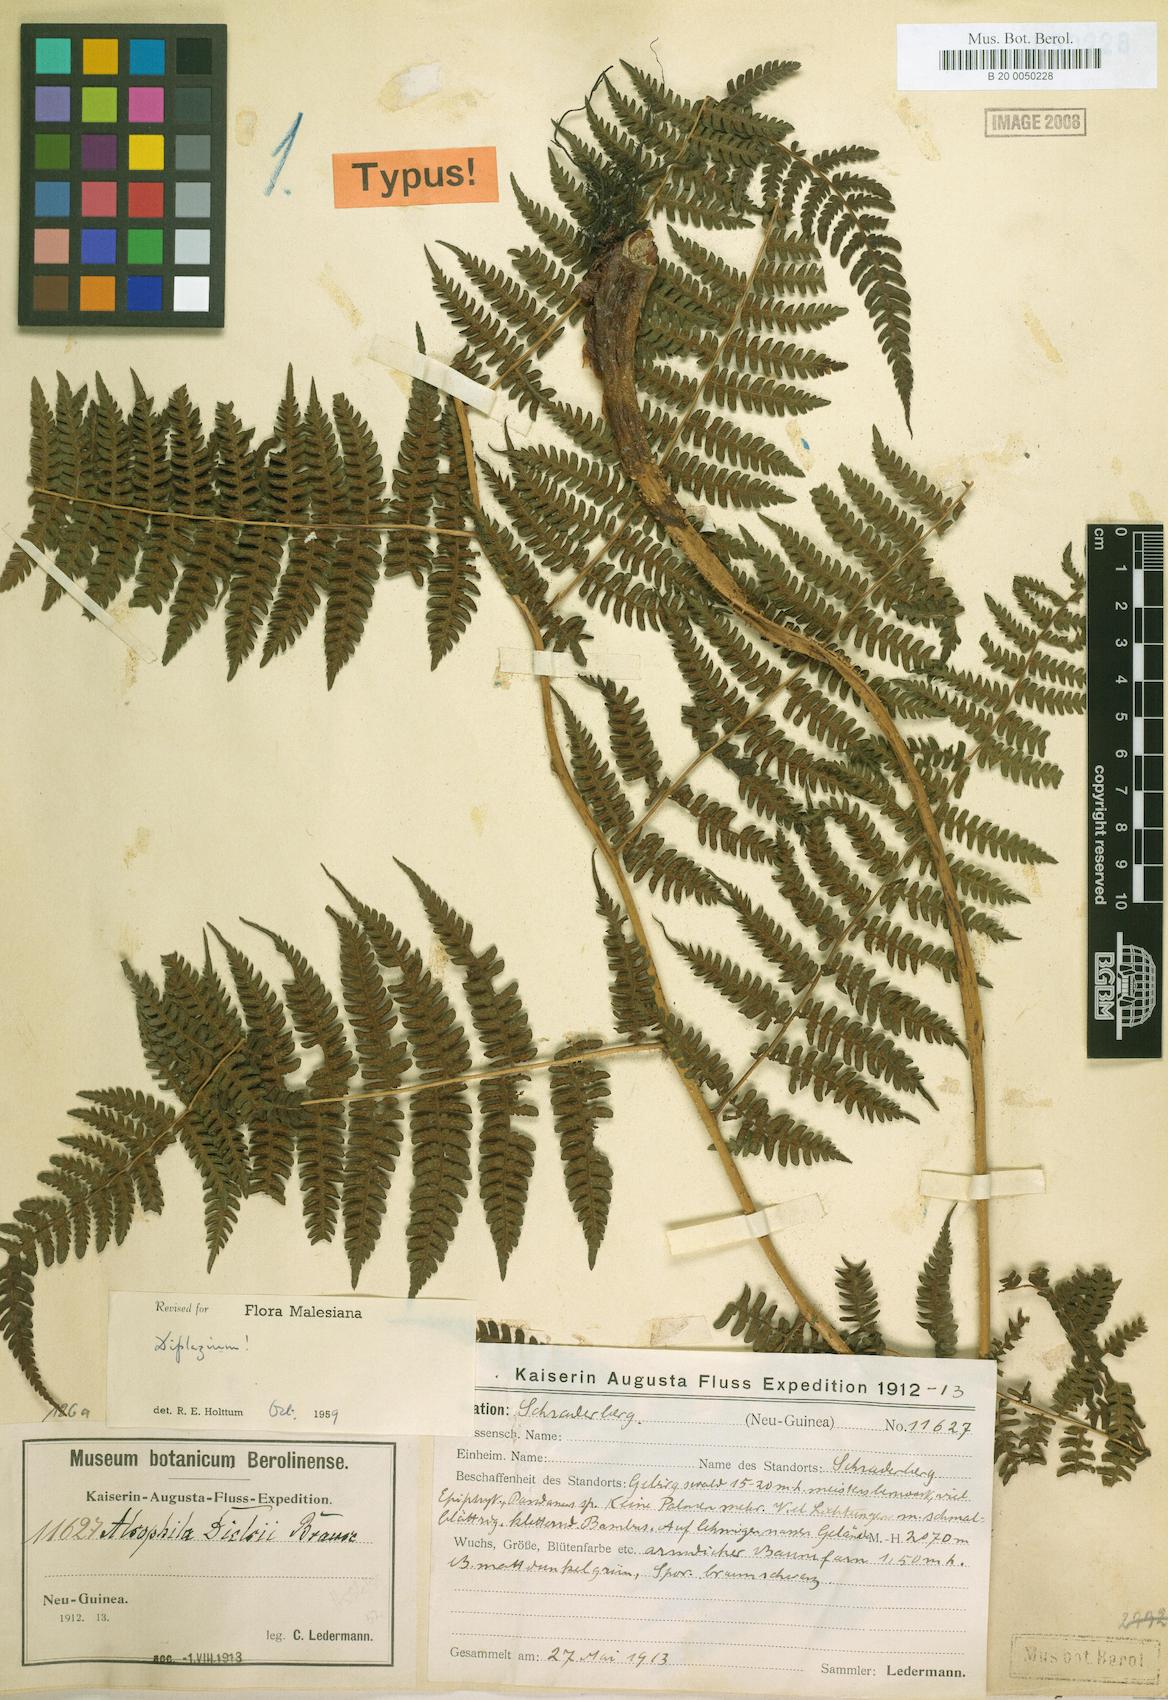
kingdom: Plantae
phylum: Tracheophyta
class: Polypodiopsida
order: Polypodiales
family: Athyriaceae
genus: Diplazium
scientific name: Diplazium dielsii
